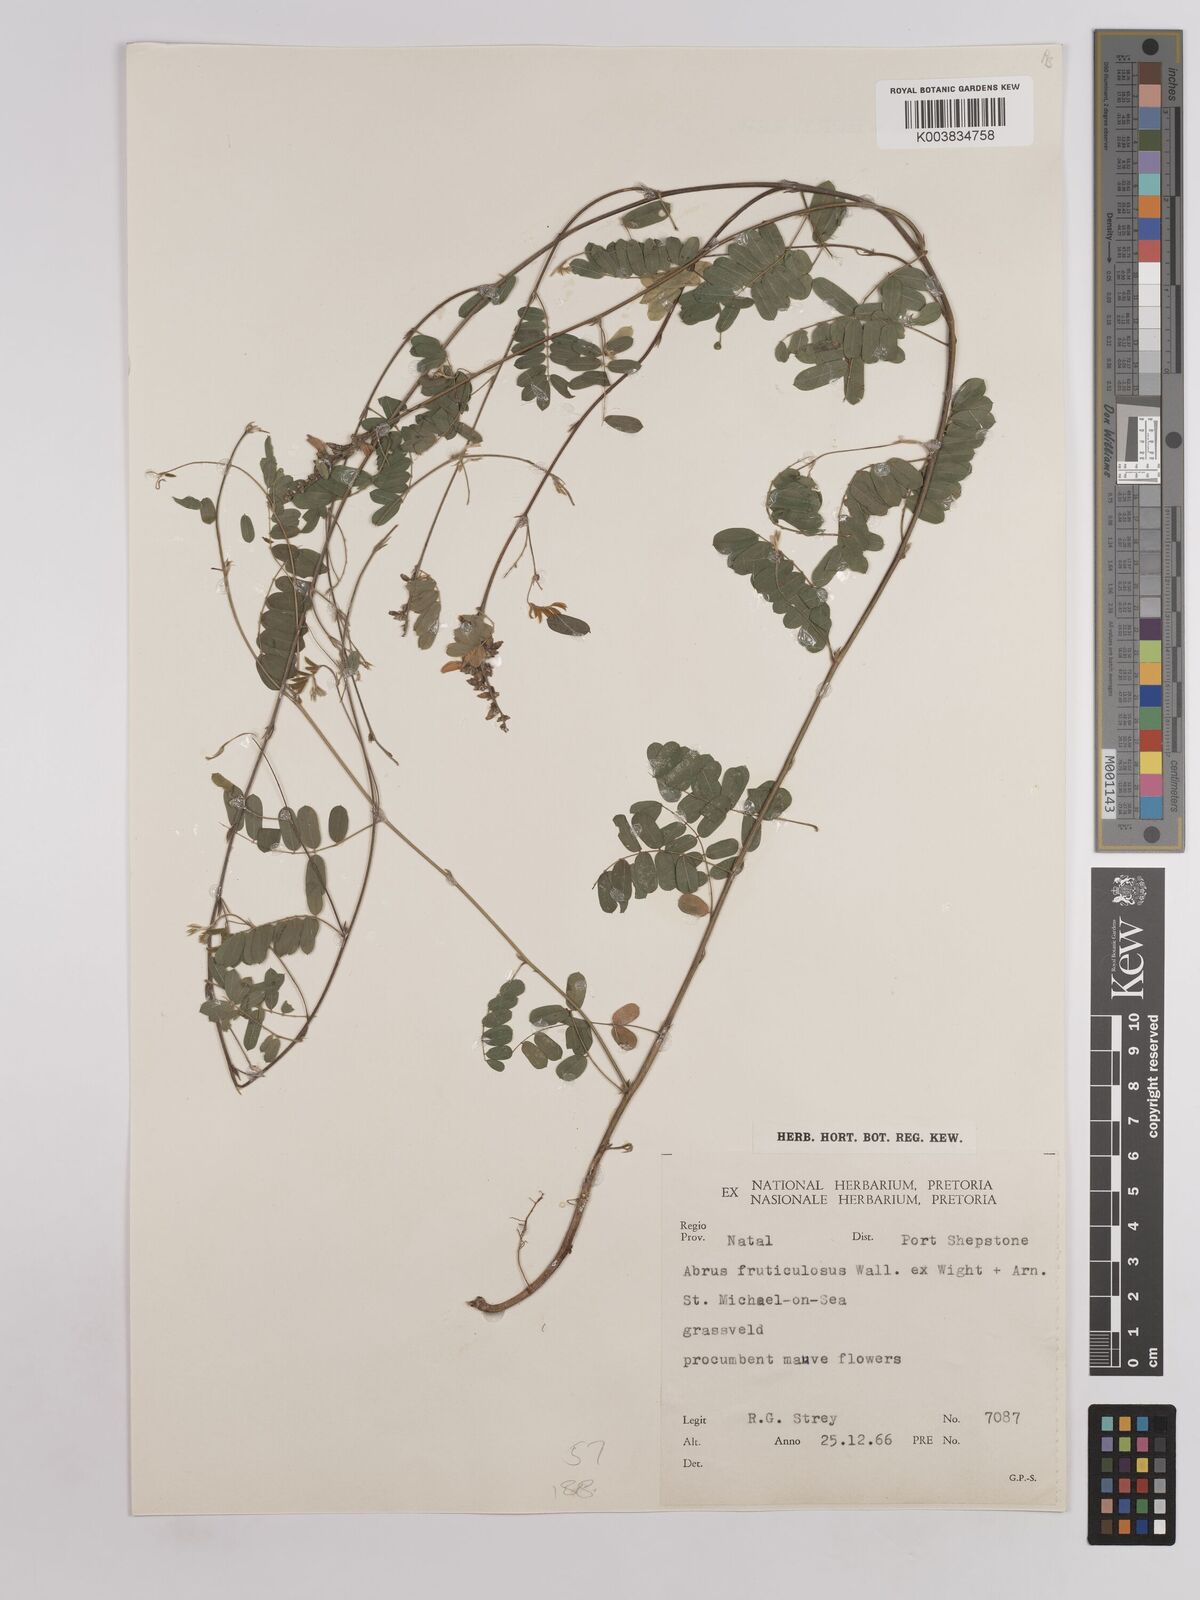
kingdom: Plantae
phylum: Tracheophyta
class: Magnoliopsida
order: Fabales
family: Fabaceae
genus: Abrus
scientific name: Abrus laevigatus
